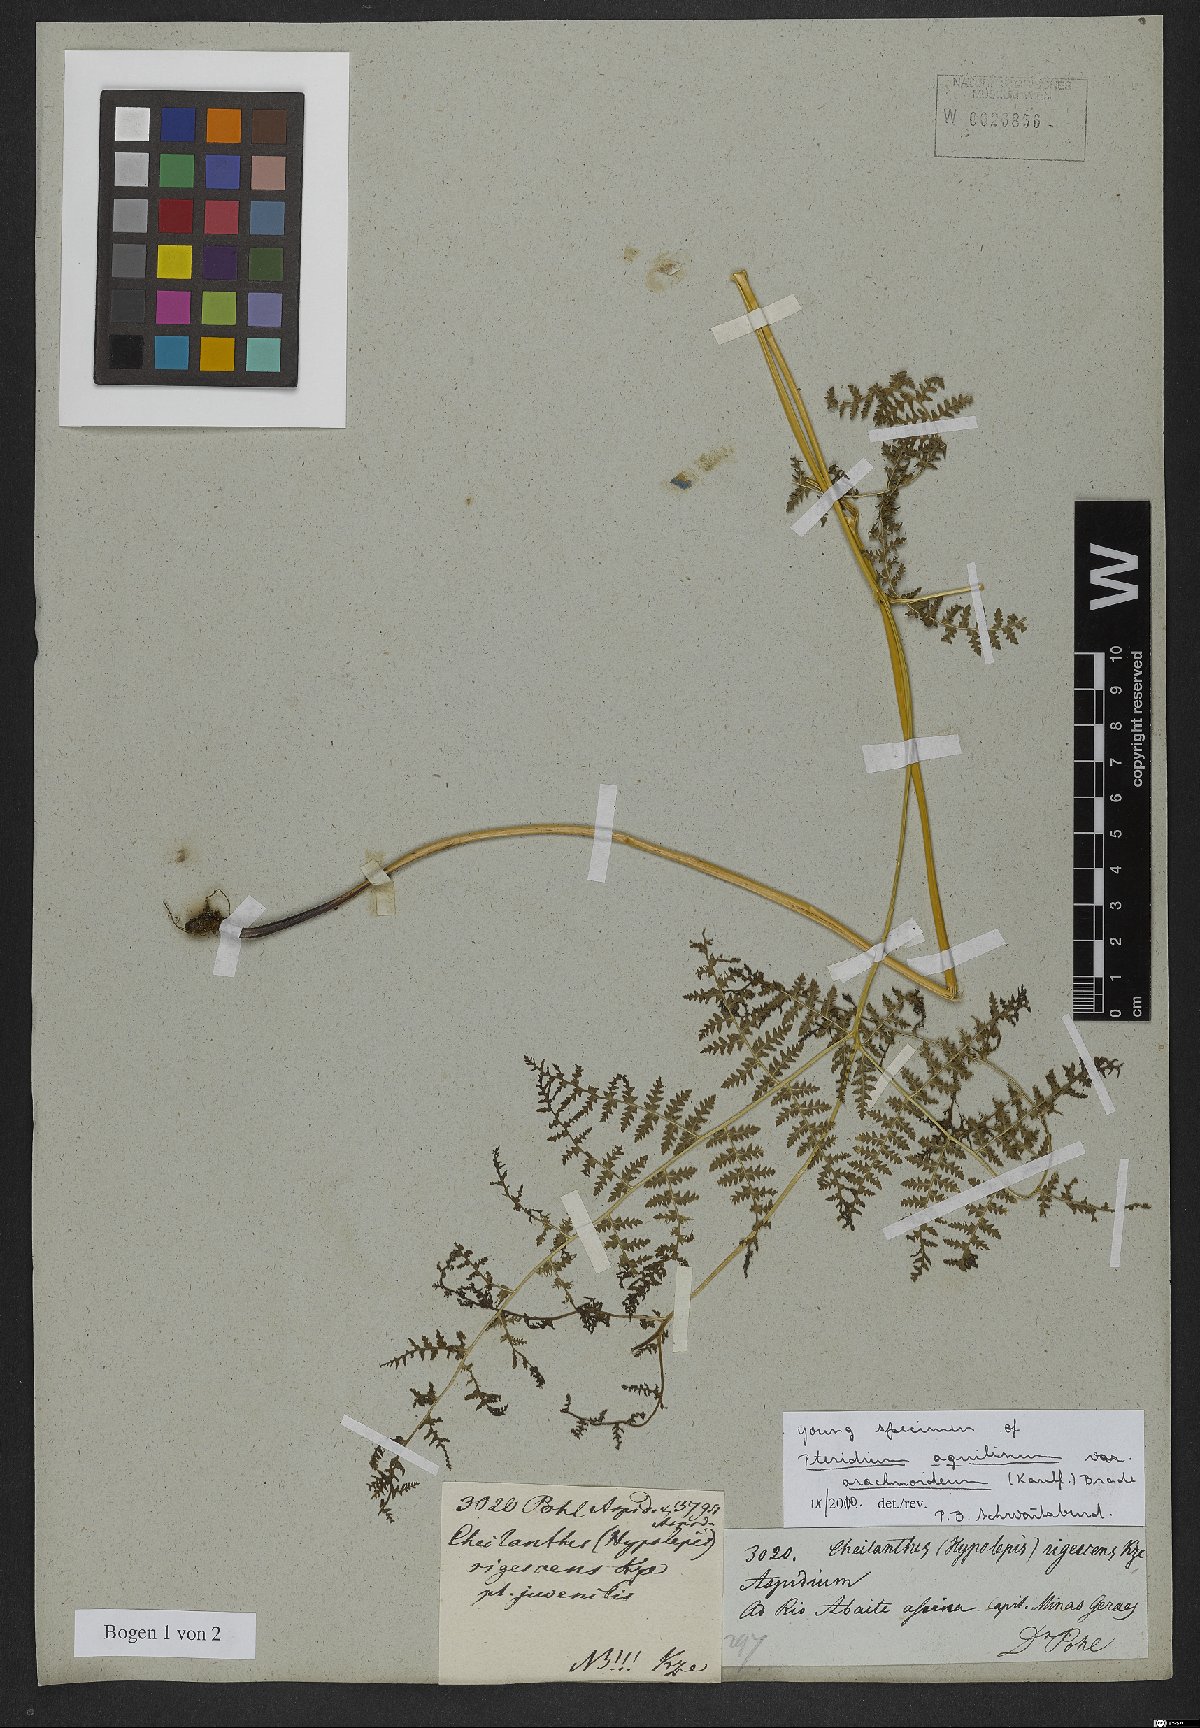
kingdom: Plantae
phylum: Tracheophyta
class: Polypodiopsida
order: Polypodiales
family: Dennstaedtiaceae
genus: Pteridium
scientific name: Pteridium esculentum
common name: Bracken fern
